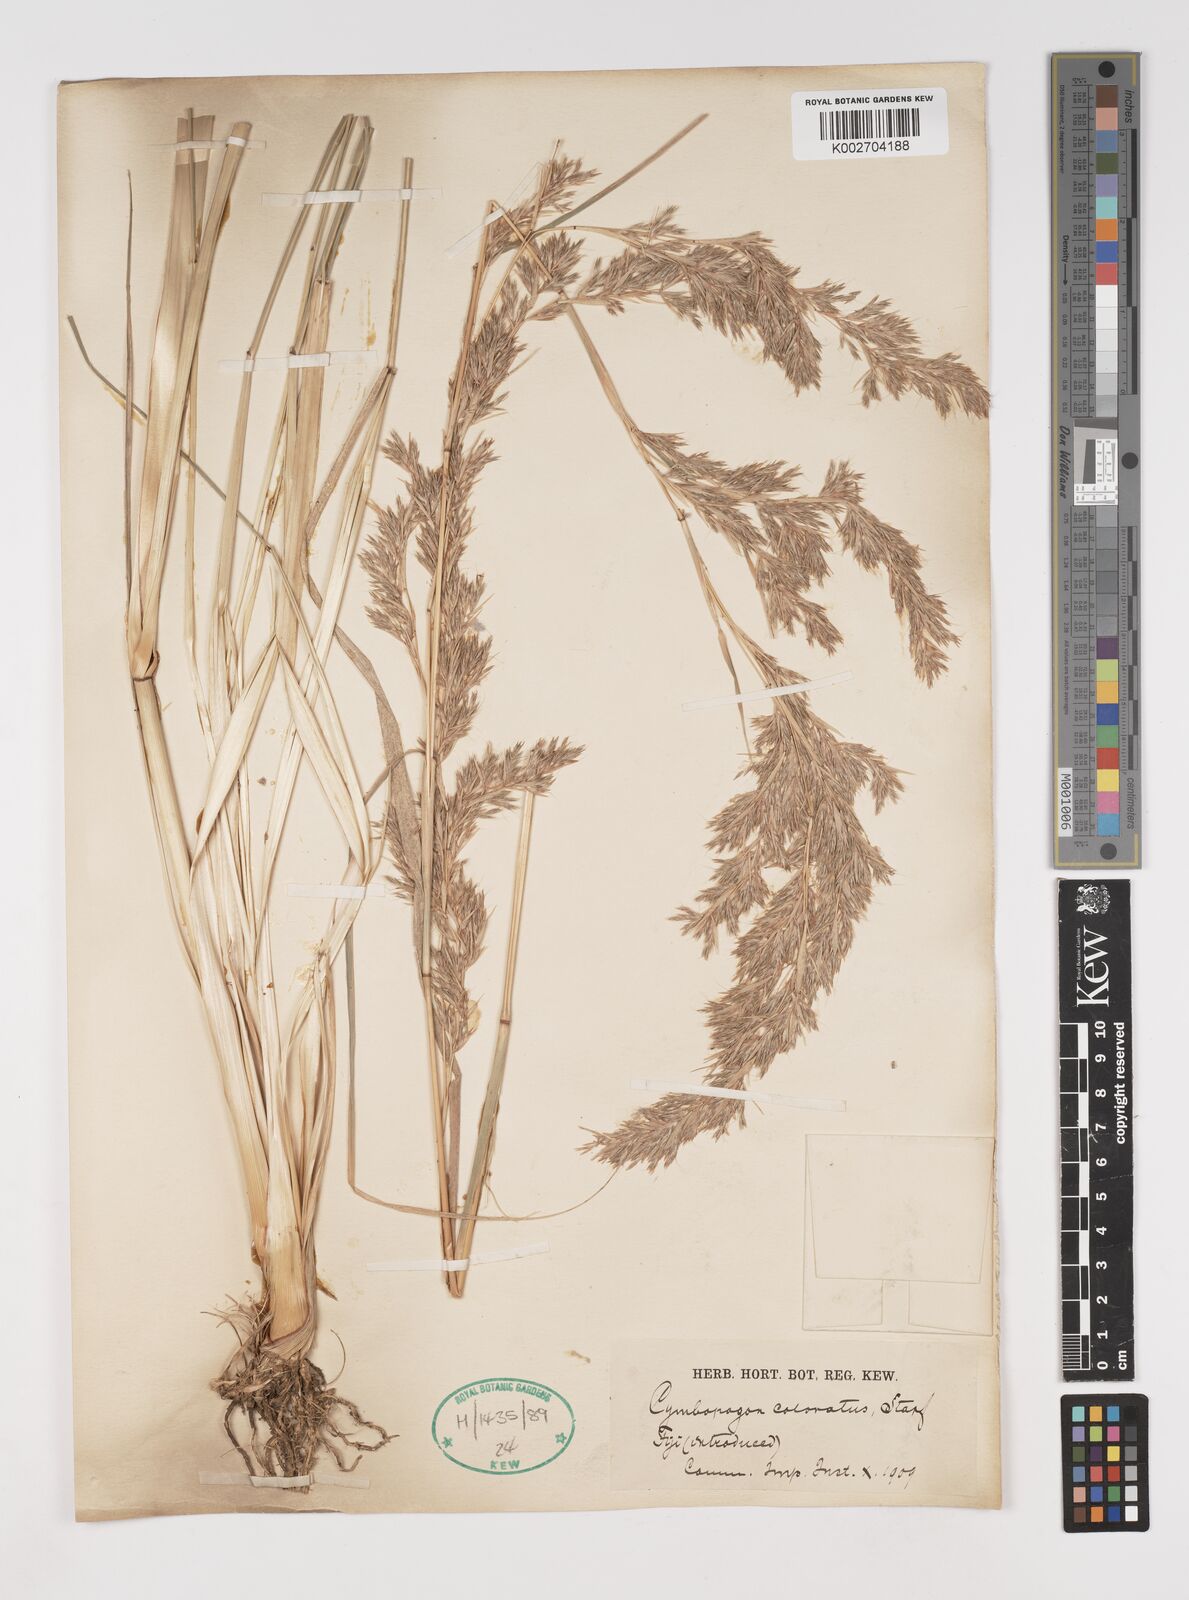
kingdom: Plantae
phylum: Tracheophyta
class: Liliopsida
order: Poales
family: Poaceae
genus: Cymbopogon
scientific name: Cymbopogon coloratus
